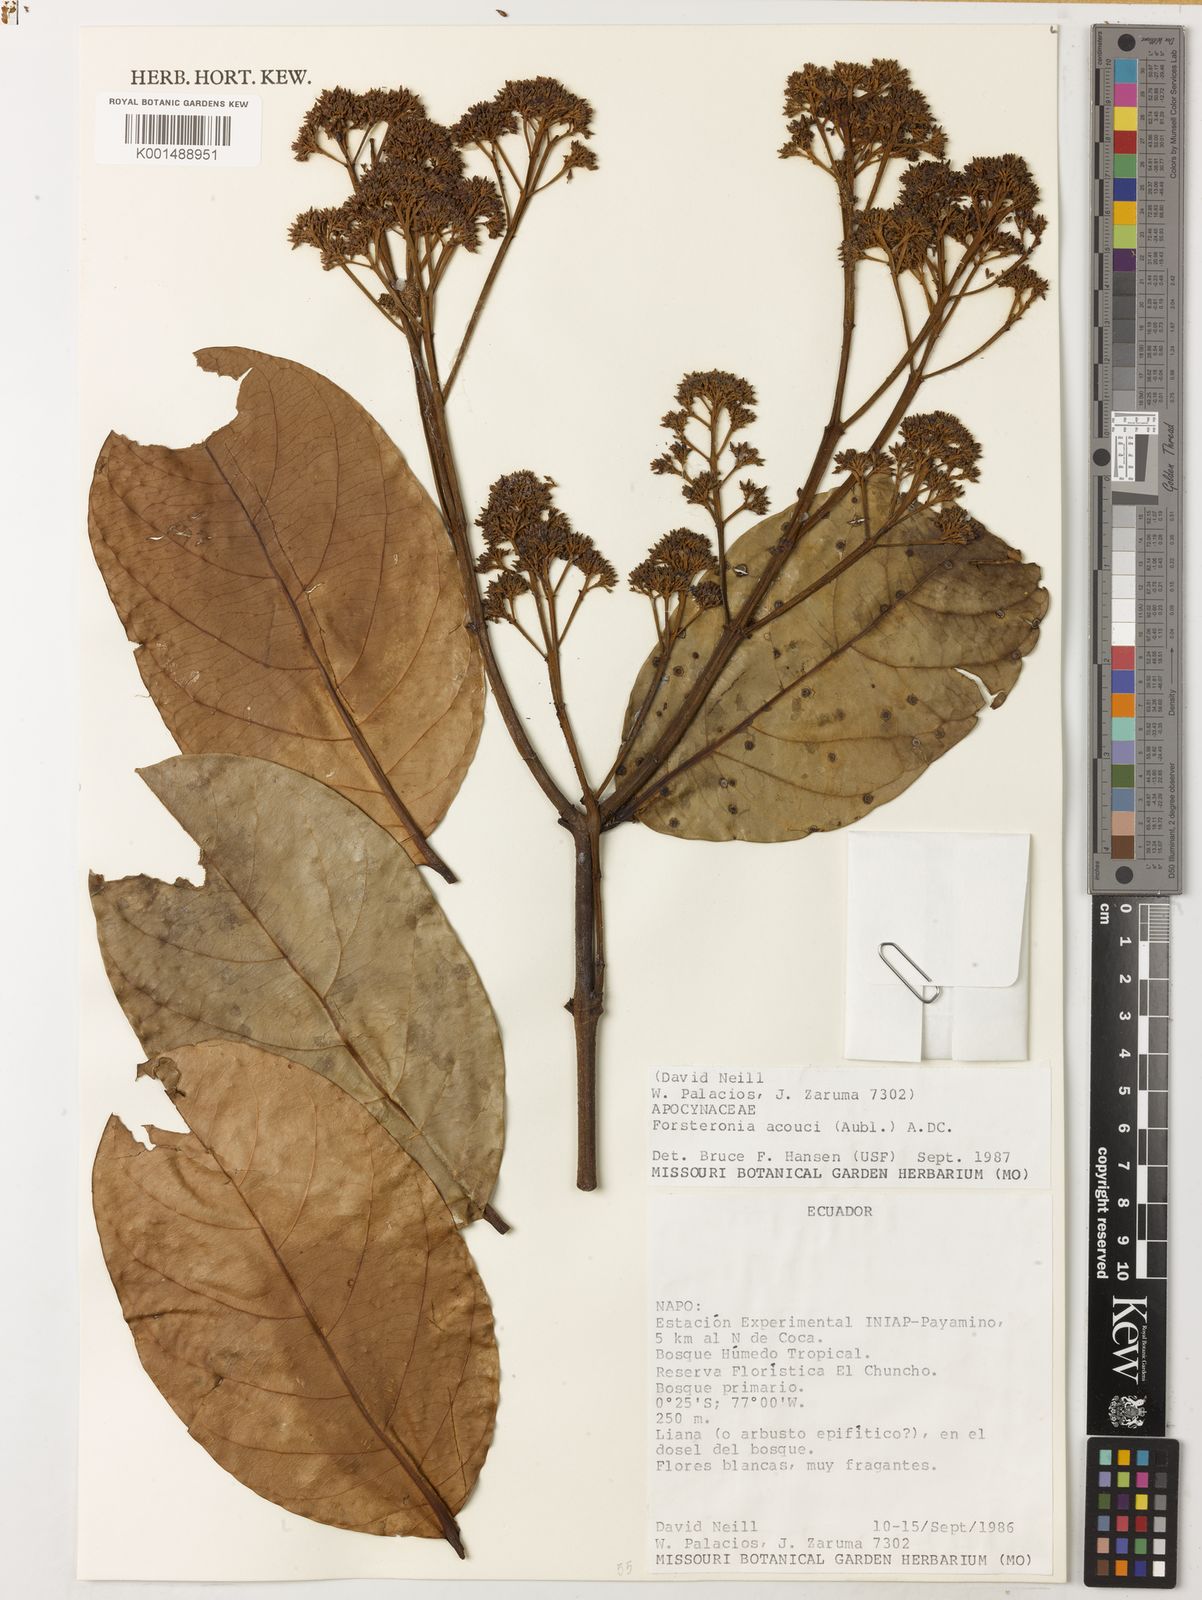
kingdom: Plantae
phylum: Tracheophyta
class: Magnoliopsida
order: Gentianales
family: Apocynaceae
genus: Forsteronia
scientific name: Forsteronia acouci
